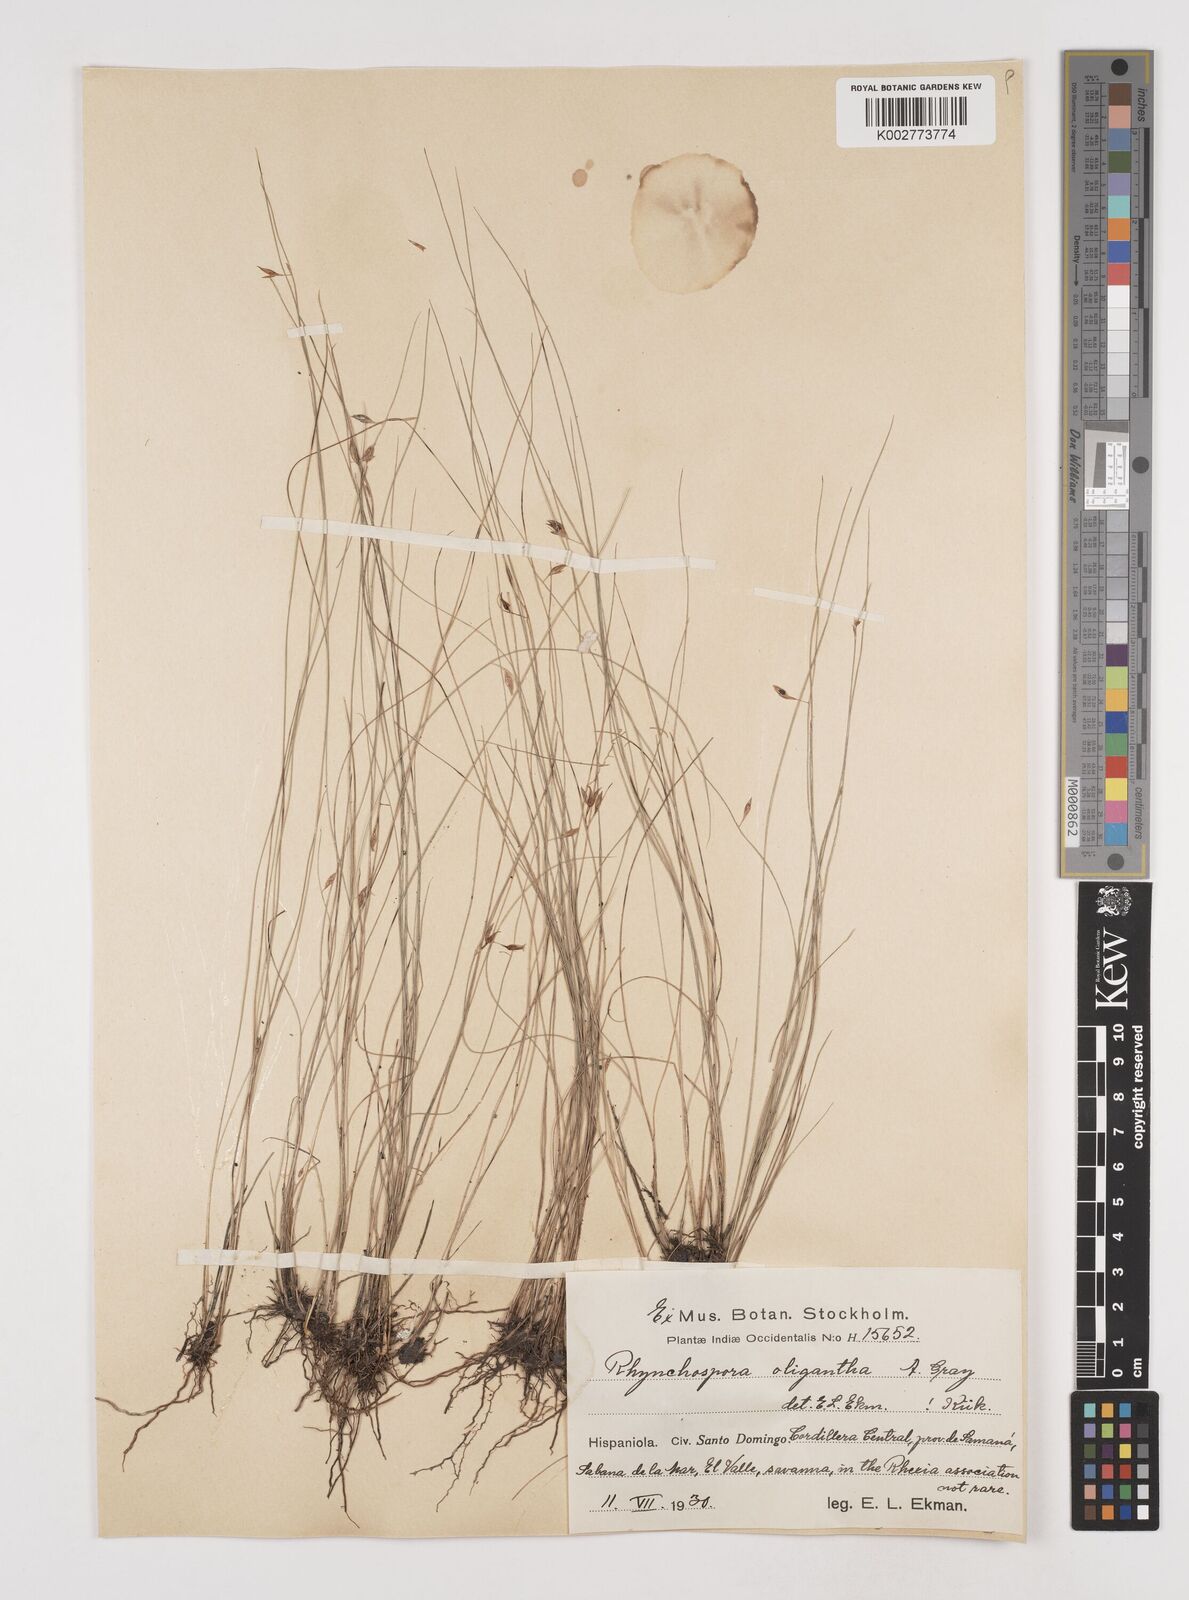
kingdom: Plantae
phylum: Tracheophyta
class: Liliopsida
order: Poales
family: Cyperaceae
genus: Rhynchospora
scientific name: Rhynchospora oligantha
